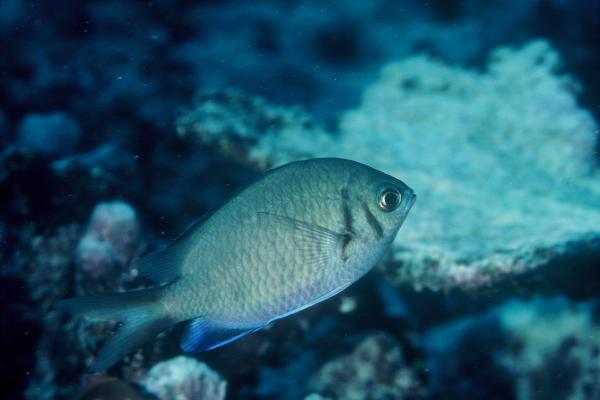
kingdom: Animalia
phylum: Chordata
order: Perciformes
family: Pomacentridae
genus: Chromis
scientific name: Chromis alpha
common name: Yellow-speckled chromis
